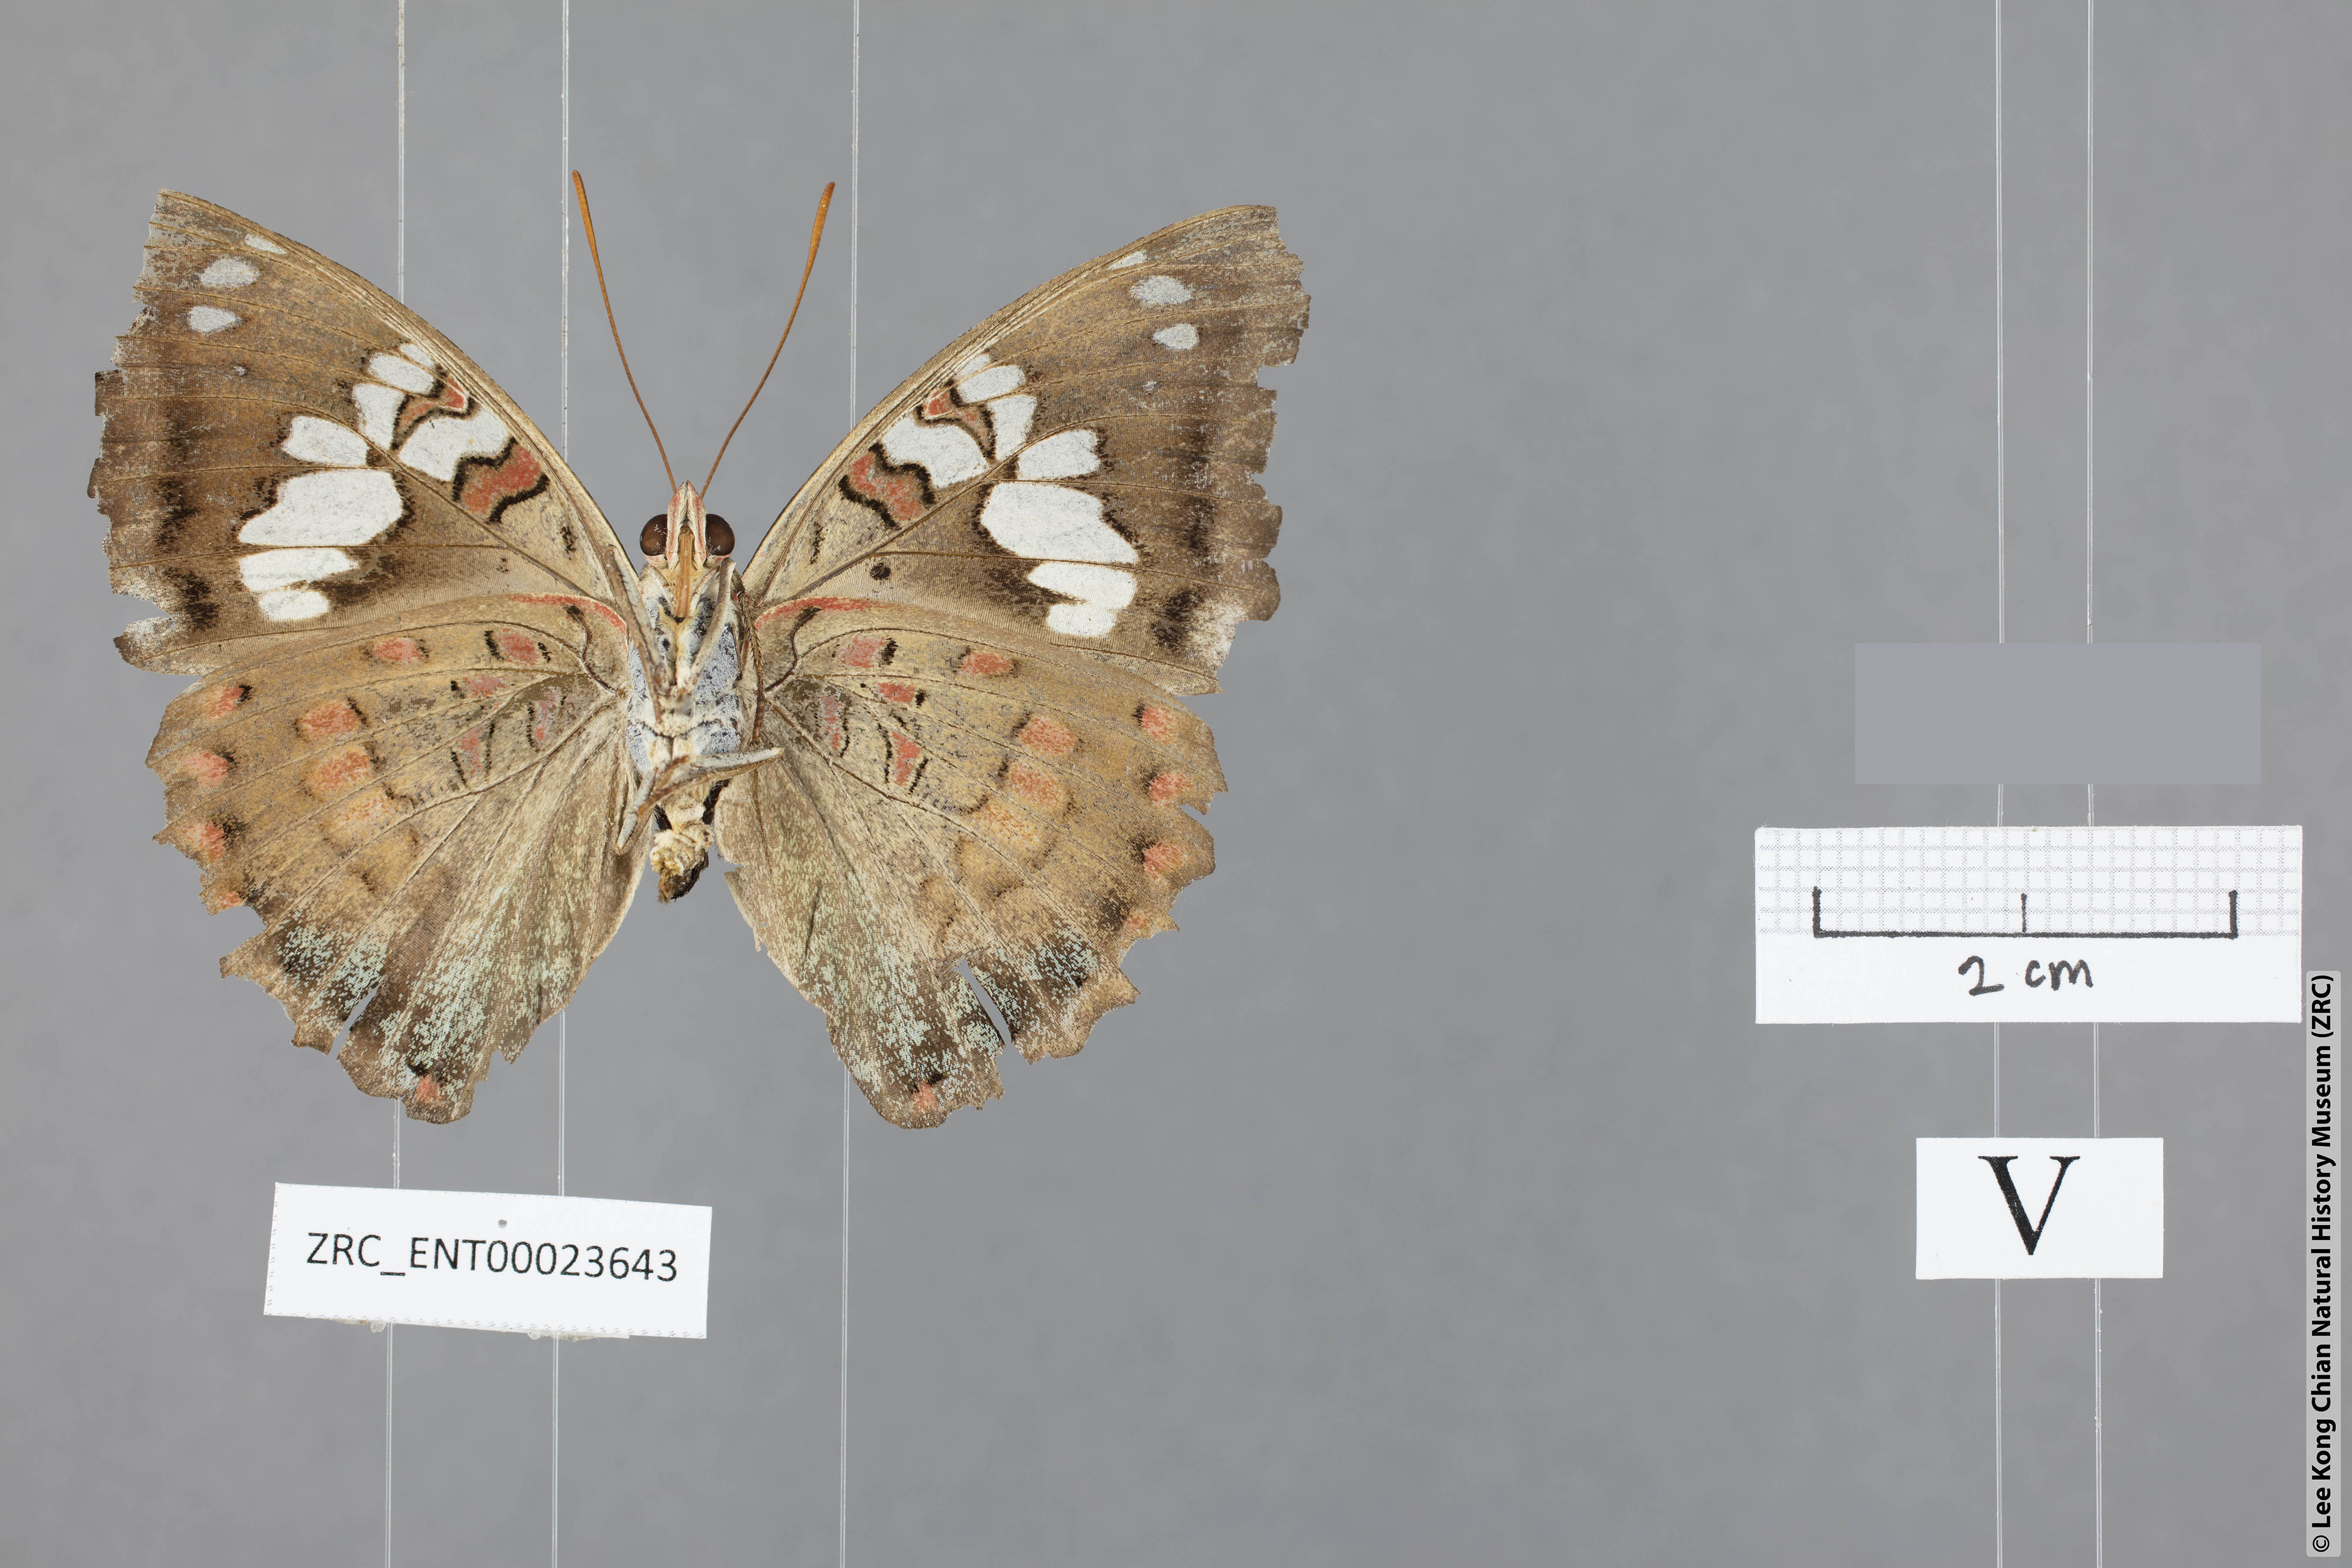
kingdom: Animalia
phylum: Arthropoda
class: Insecta
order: Lepidoptera
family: Nymphalidae
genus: Euthalia
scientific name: Euthalia djata
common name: Red-spot baron
